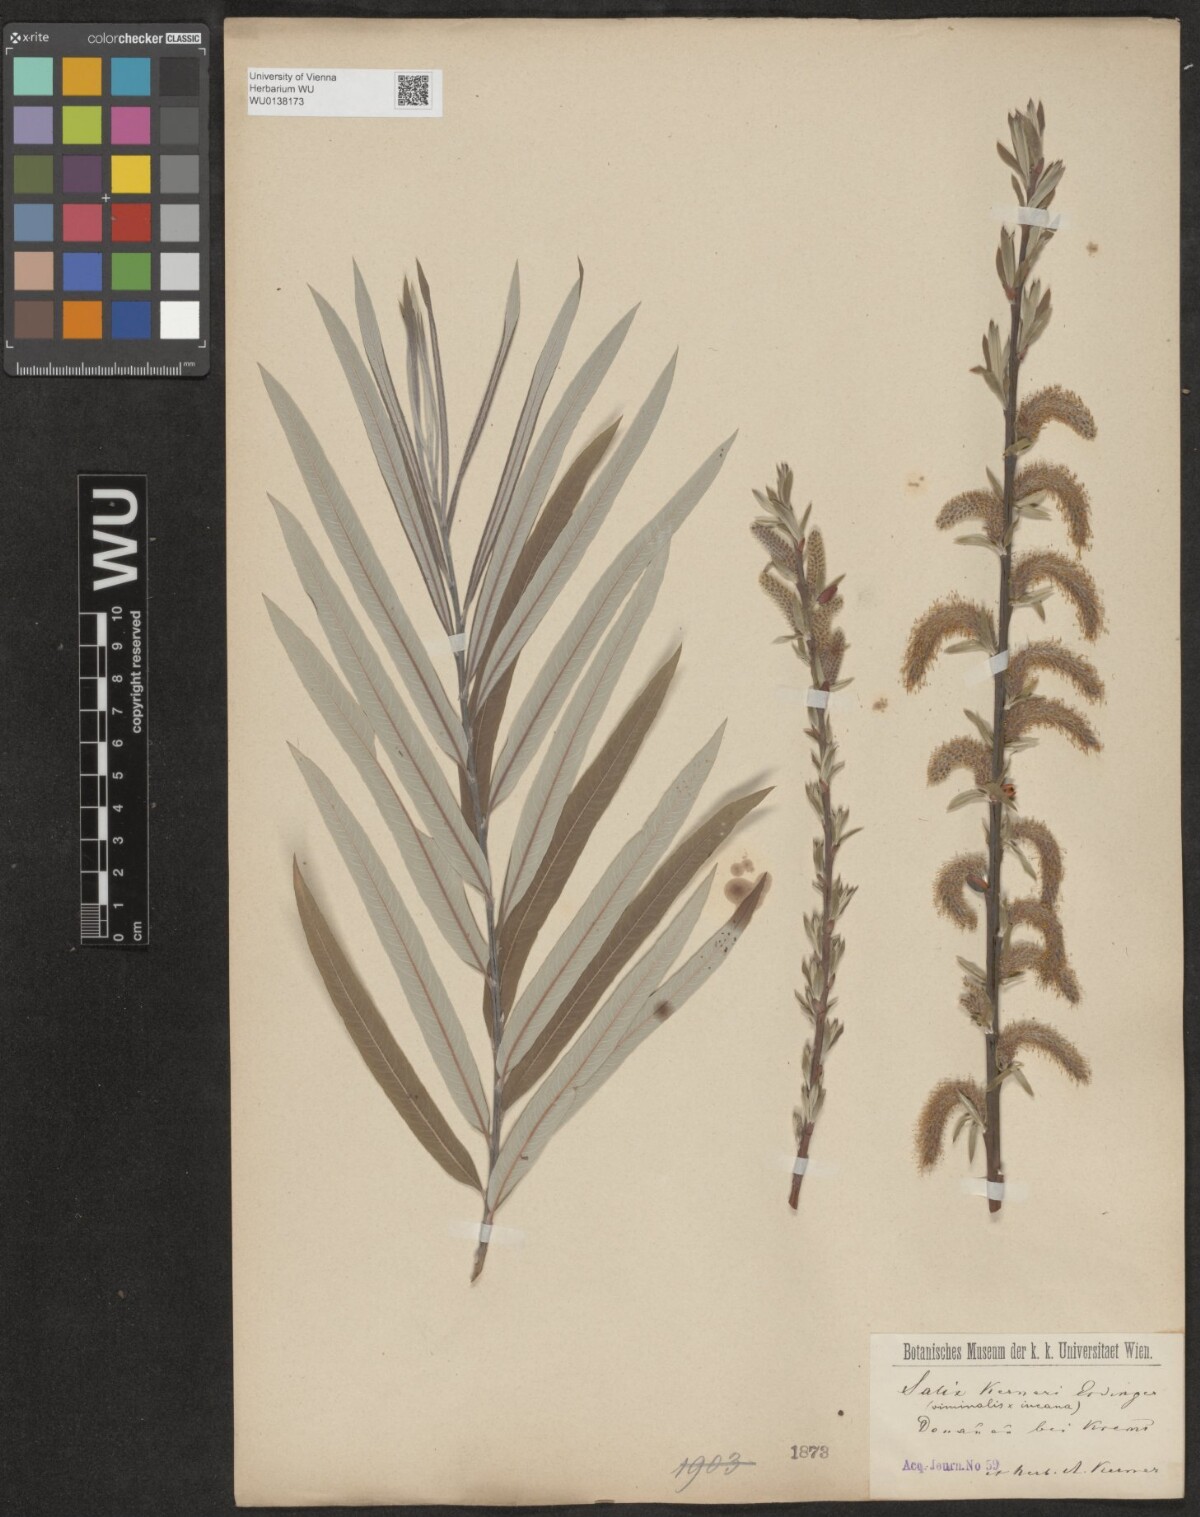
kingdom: Plantae
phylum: Tracheophyta
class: Magnoliopsida
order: Malpighiales
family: Salicaceae
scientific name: Salicaceae
